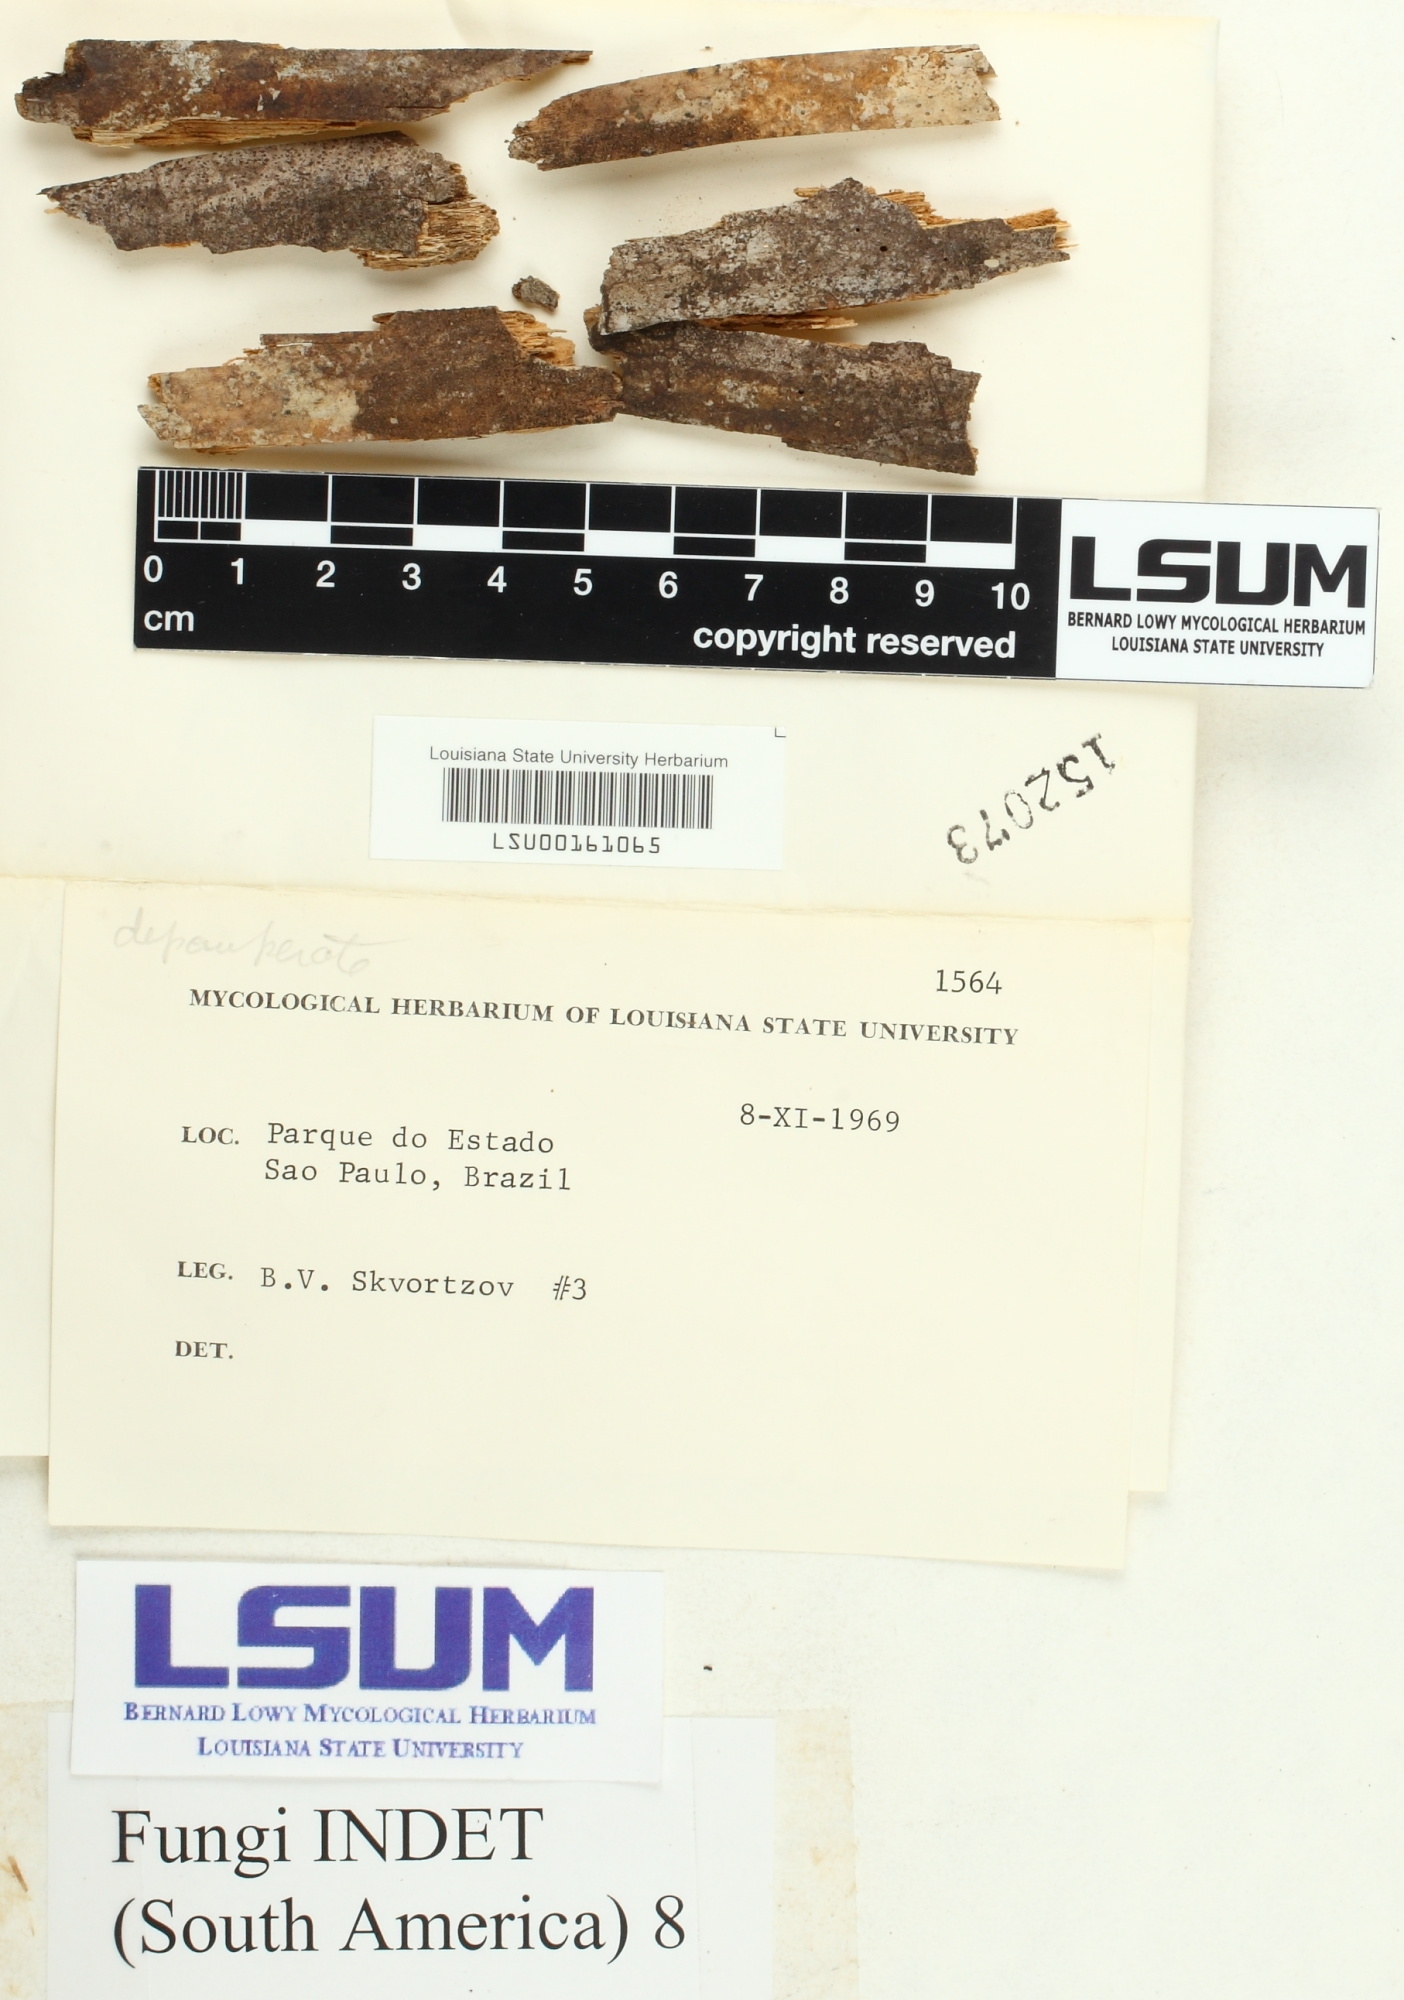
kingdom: Fungi
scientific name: Fungi
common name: Fungi
